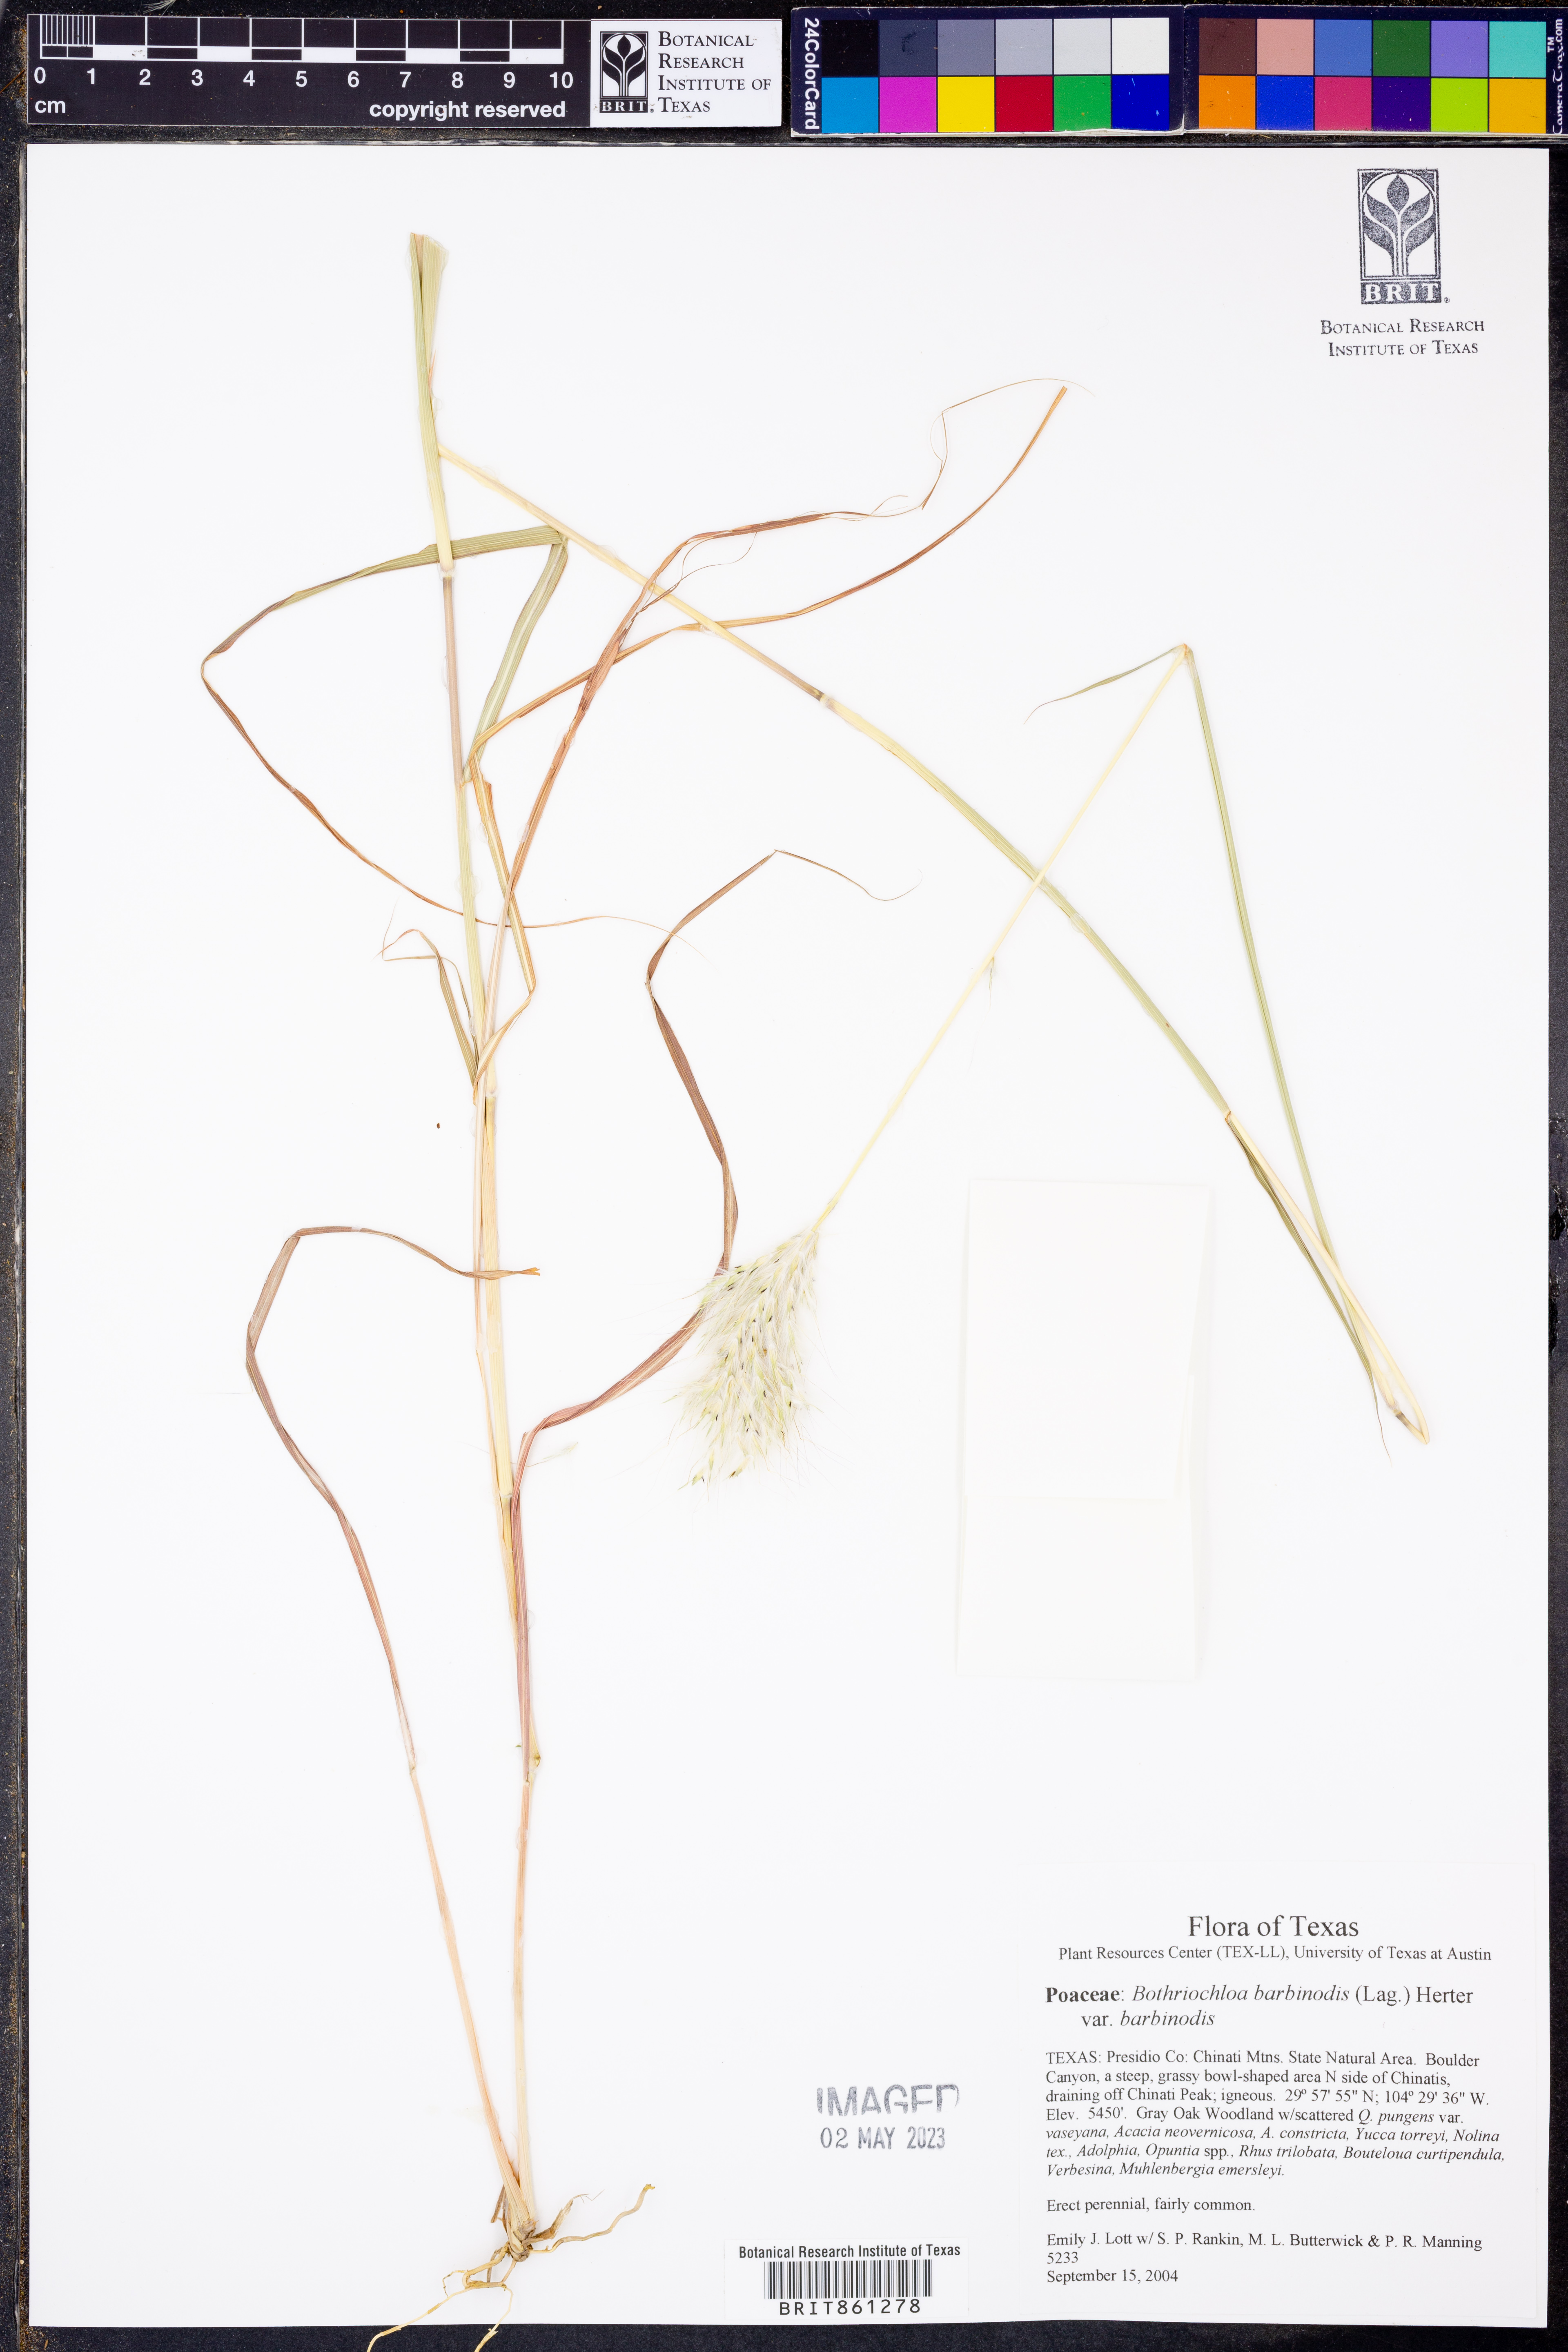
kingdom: Plantae
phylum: Tracheophyta
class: Liliopsida
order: Poales
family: Poaceae
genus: Bothriochloa
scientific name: Bothriochloa barbinodis
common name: Cane bluestem
